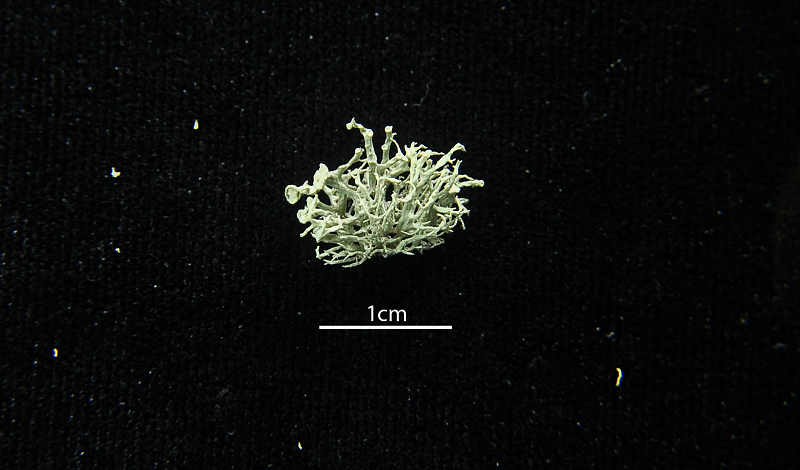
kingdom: Fungi
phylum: Ascomycota
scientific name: Ascomycota
